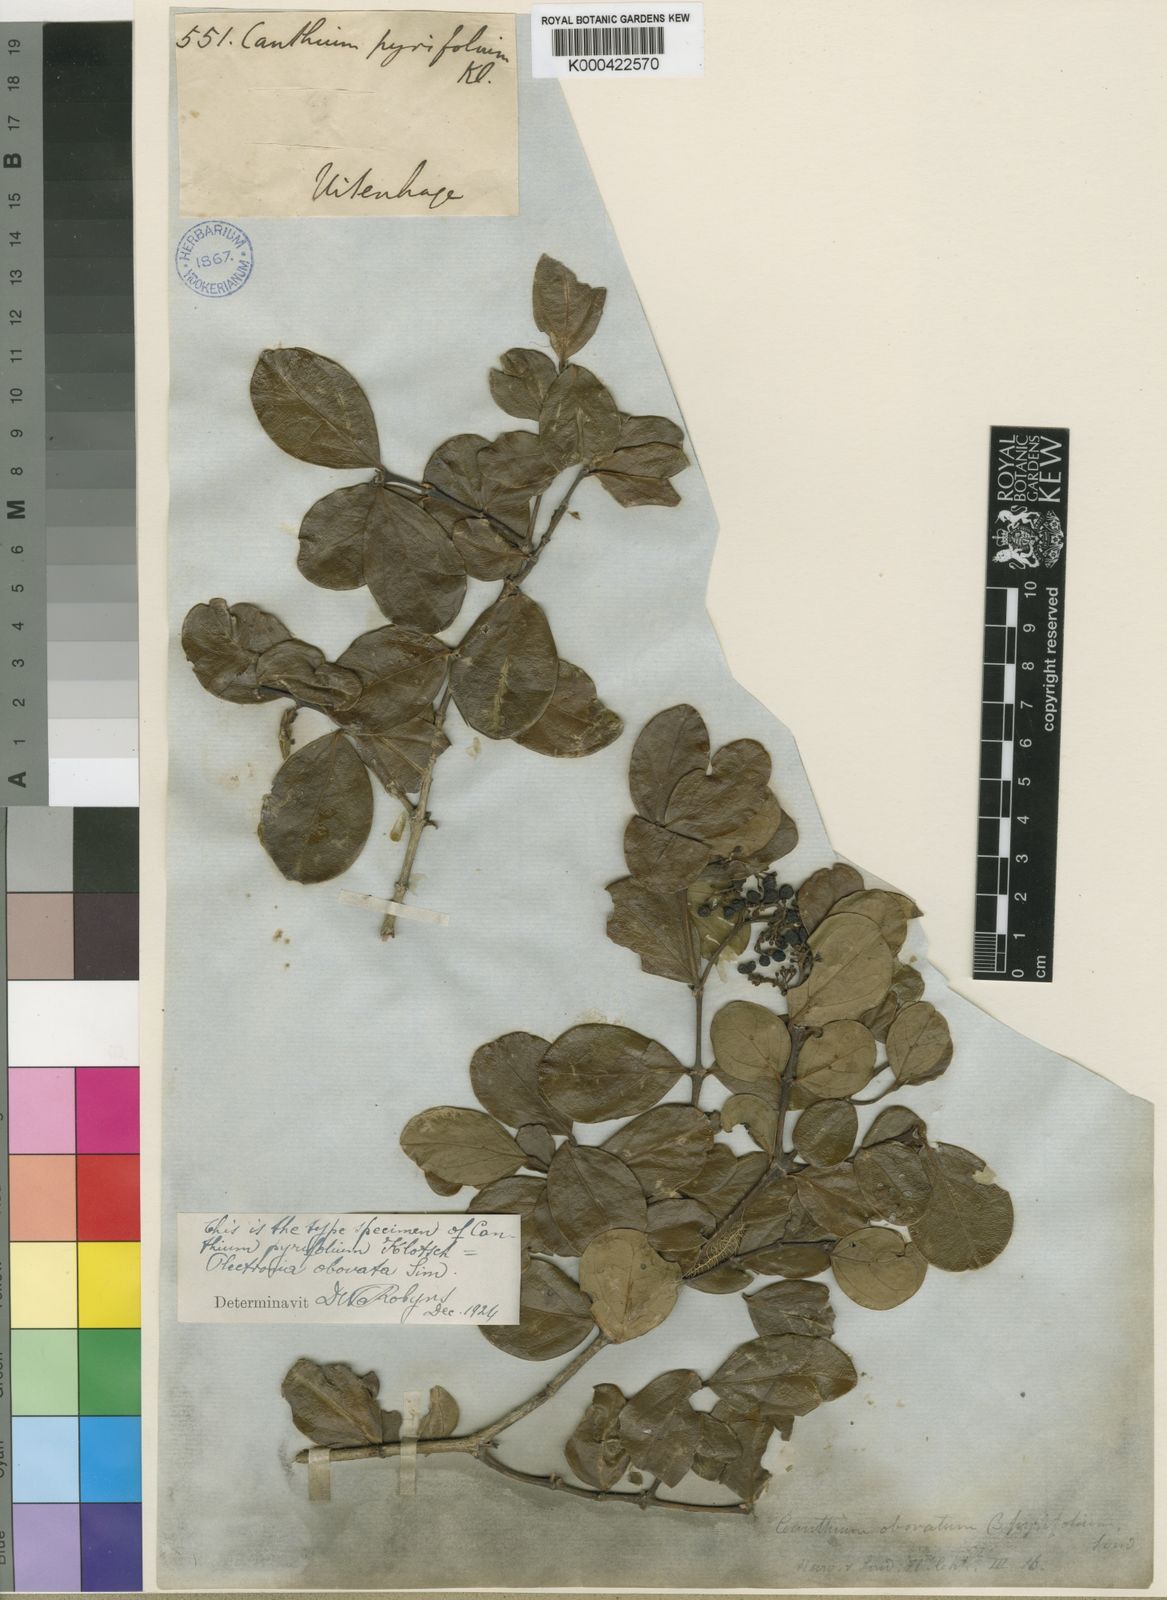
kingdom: Plantae
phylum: Tracheophyta
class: Magnoliopsida
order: Gentianales
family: Rubiaceae
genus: Psydrax
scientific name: Psydrax obovatus
